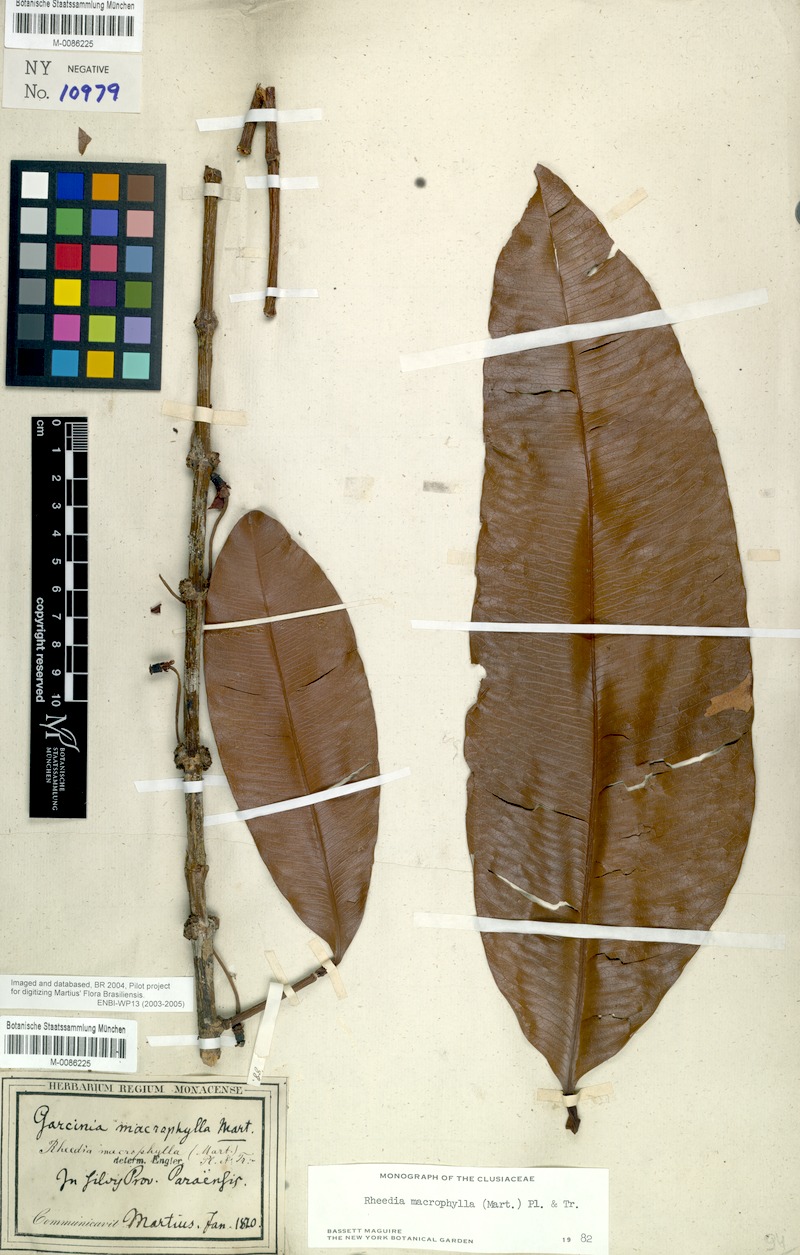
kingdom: Plantae
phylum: Tracheophyta
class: Magnoliopsida
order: Malpighiales
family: Clusiaceae
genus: Garcinia
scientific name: Garcinia macrophylla
